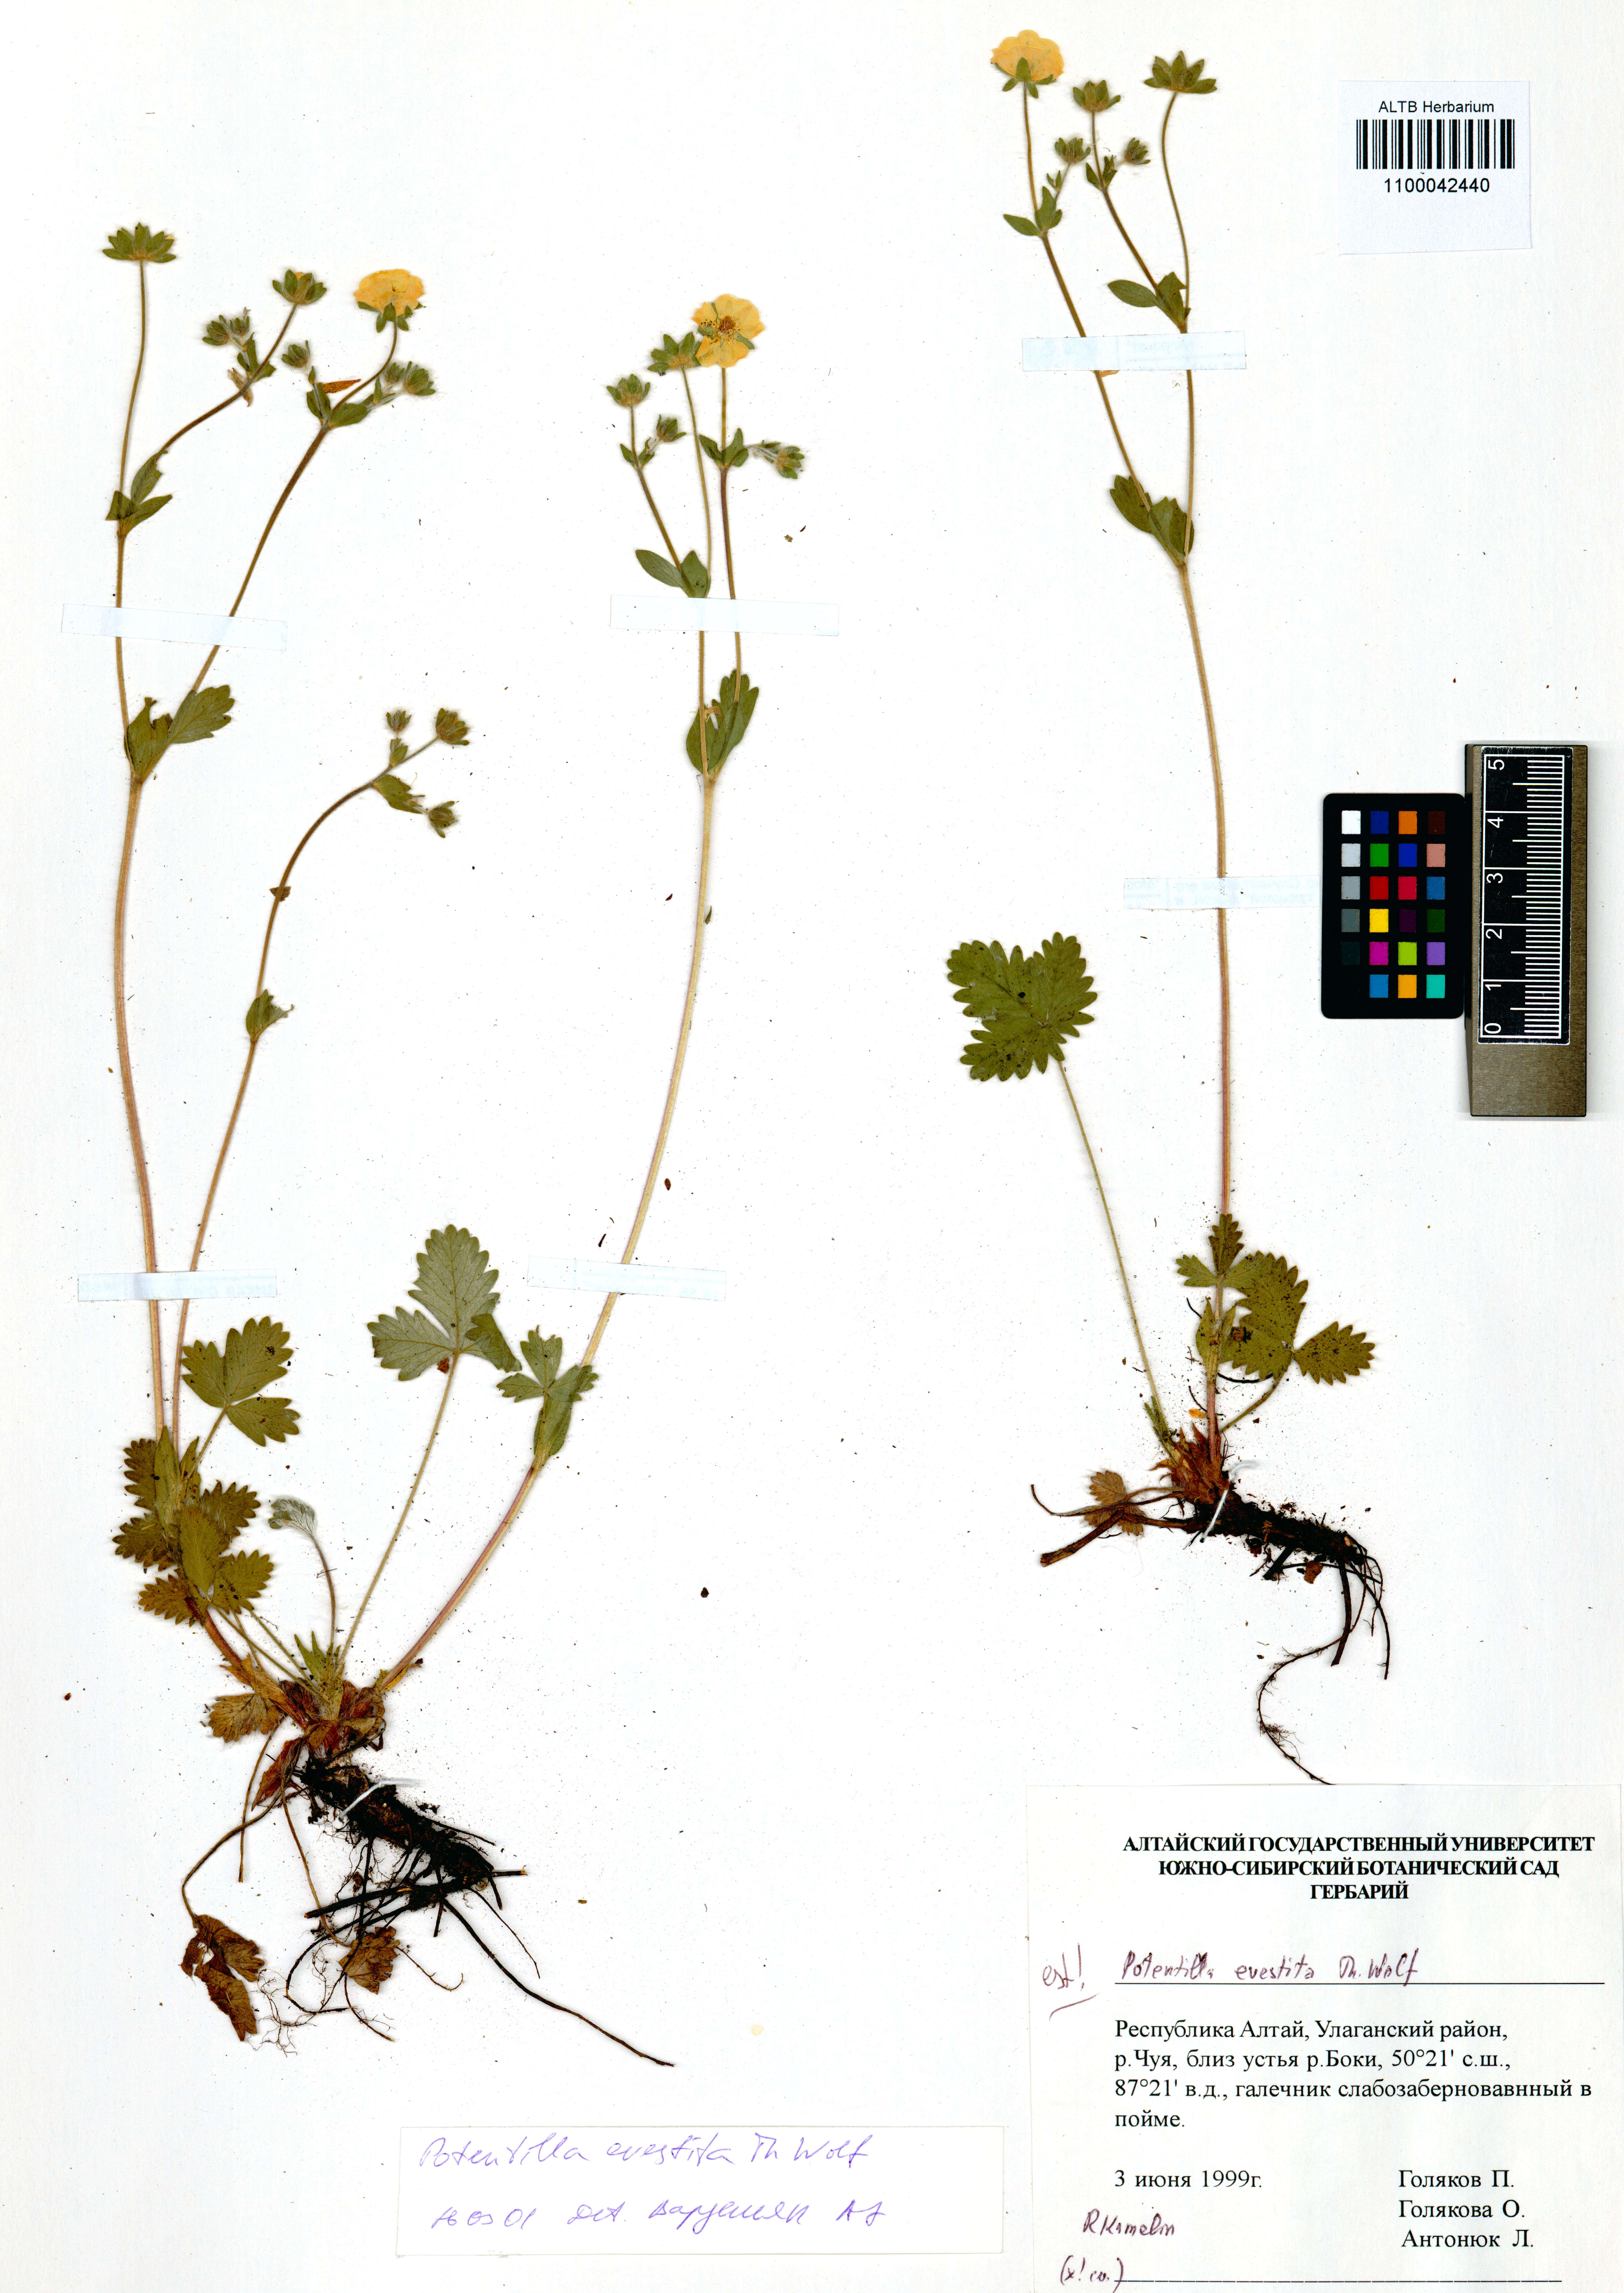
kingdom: Plantae
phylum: Tracheophyta
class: Magnoliopsida
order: Rosales
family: Rosaceae
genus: Potentilla
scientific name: Potentilla evestita
